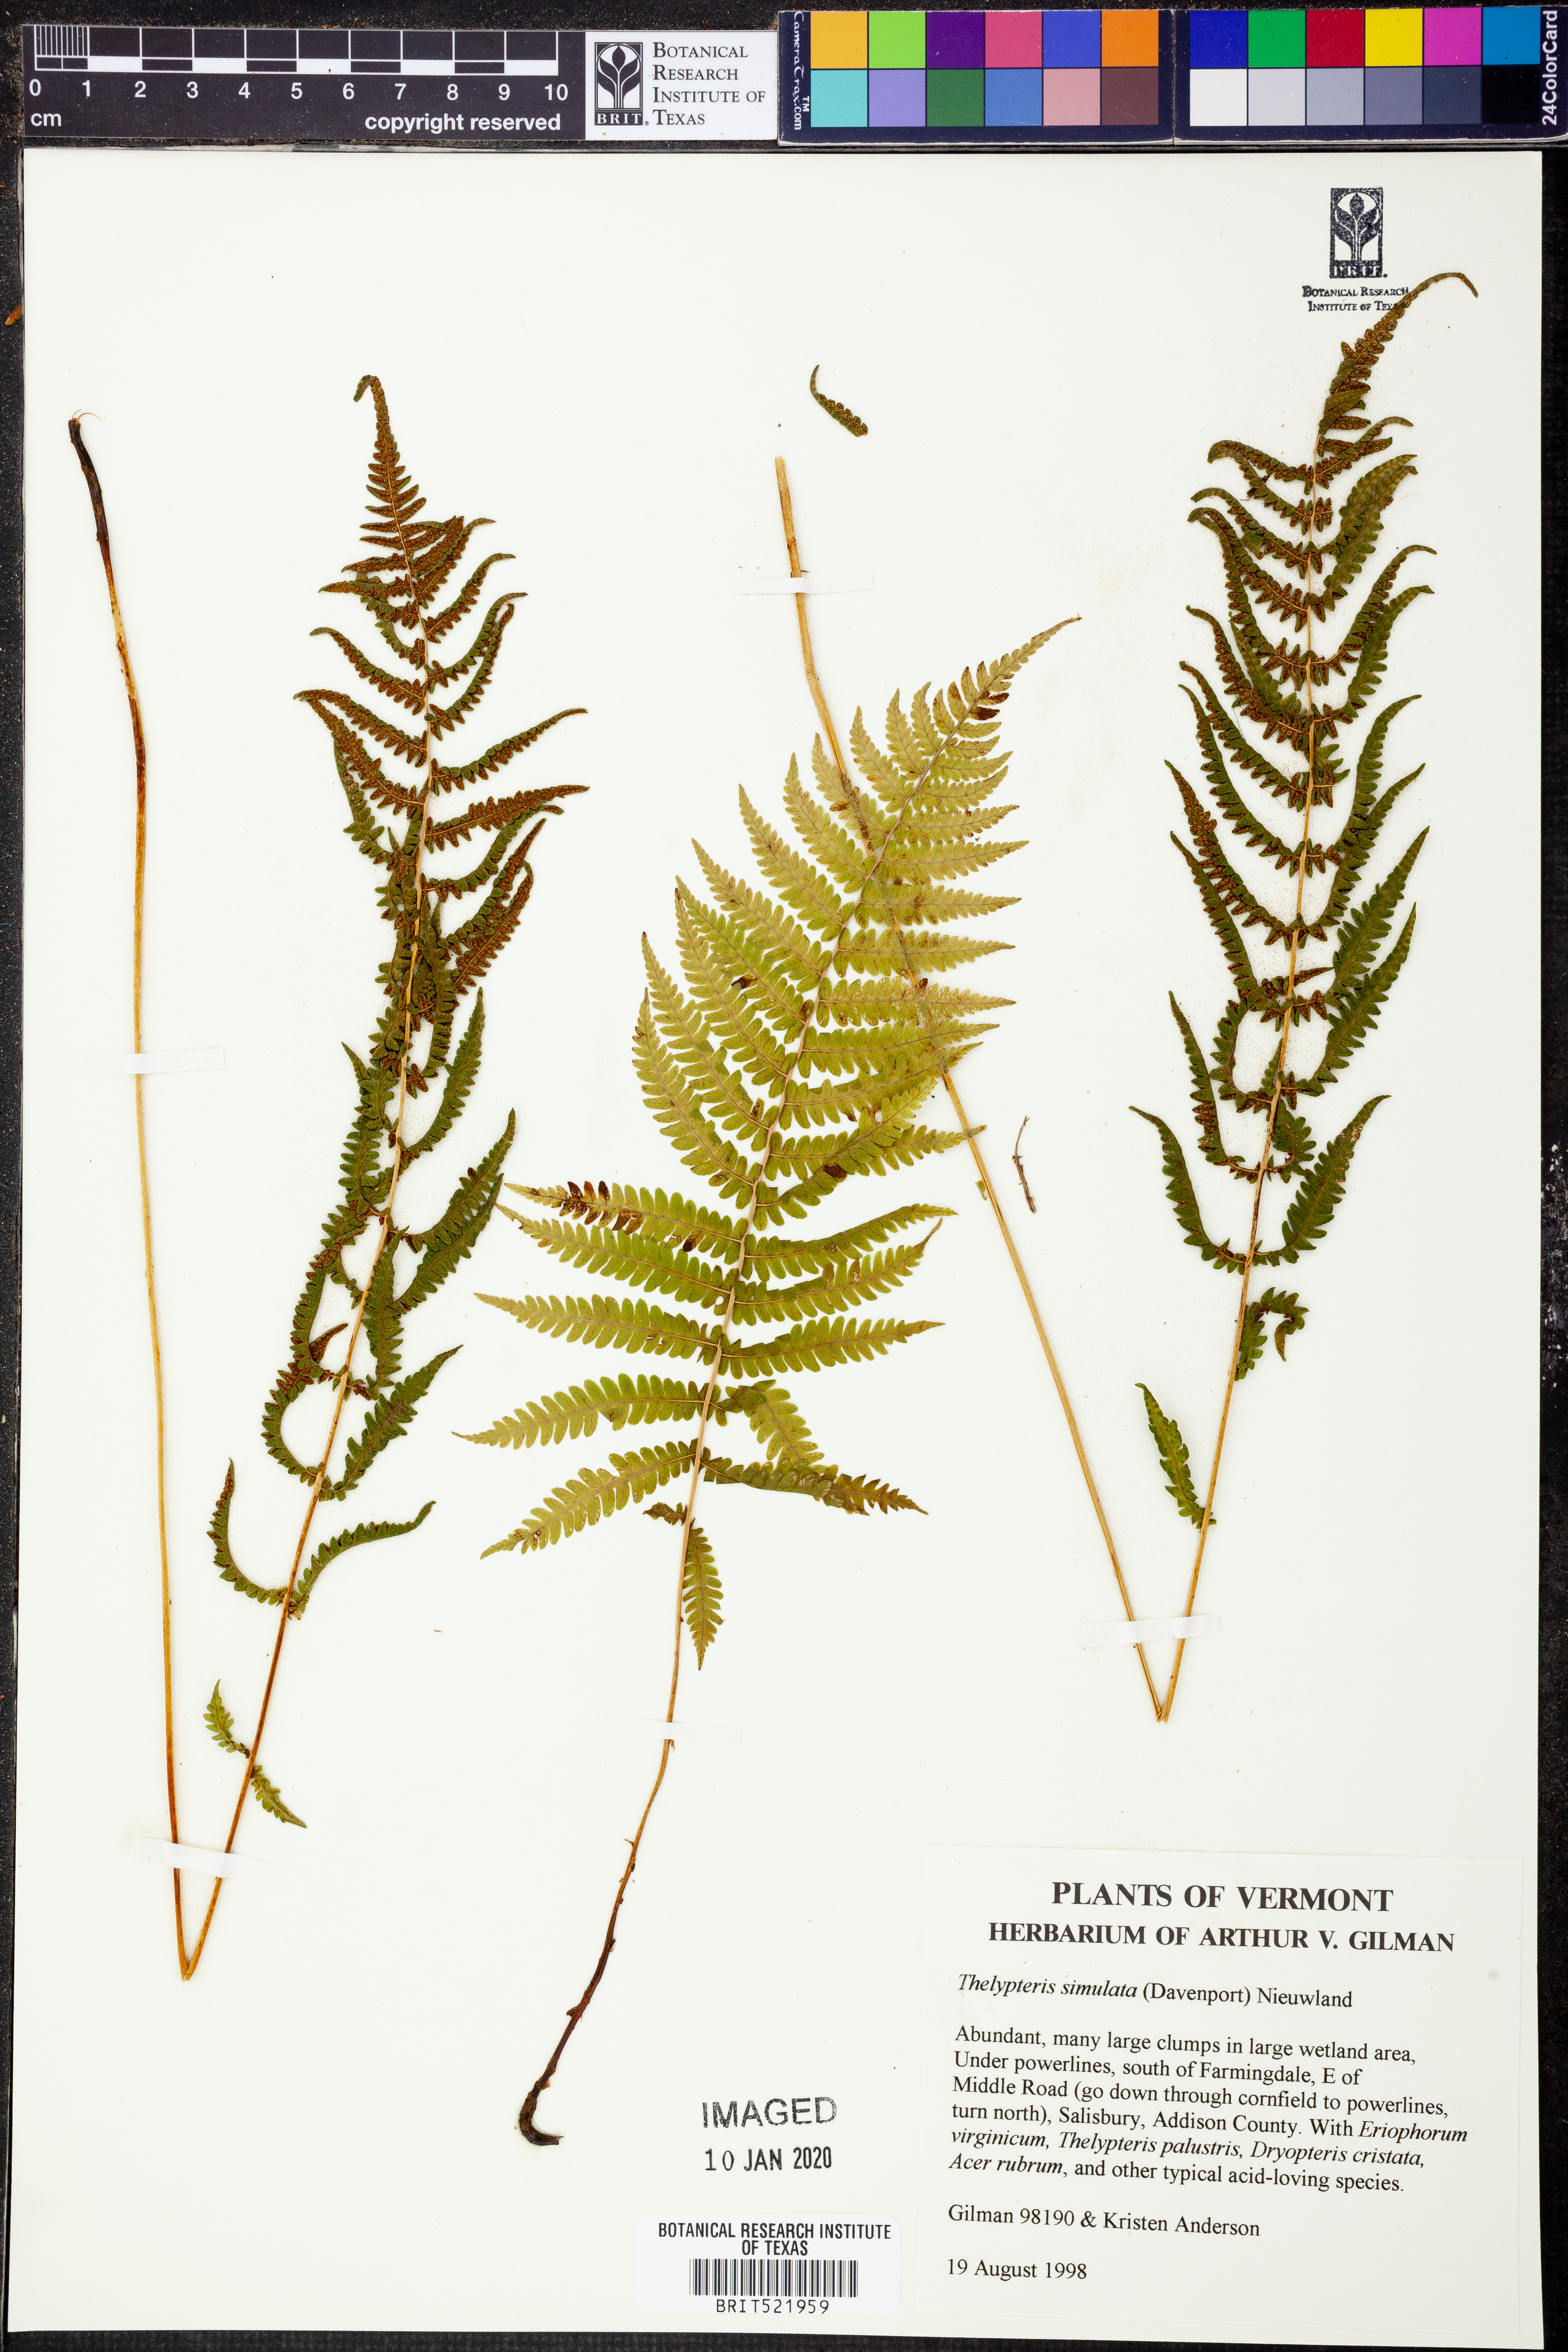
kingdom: Plantae
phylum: Tracheophyta
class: Polypodiopsida
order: Polypodiales
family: Thelypteridaceae
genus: Coryphopteris
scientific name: Coryphopteris simulata
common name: Bog fern
